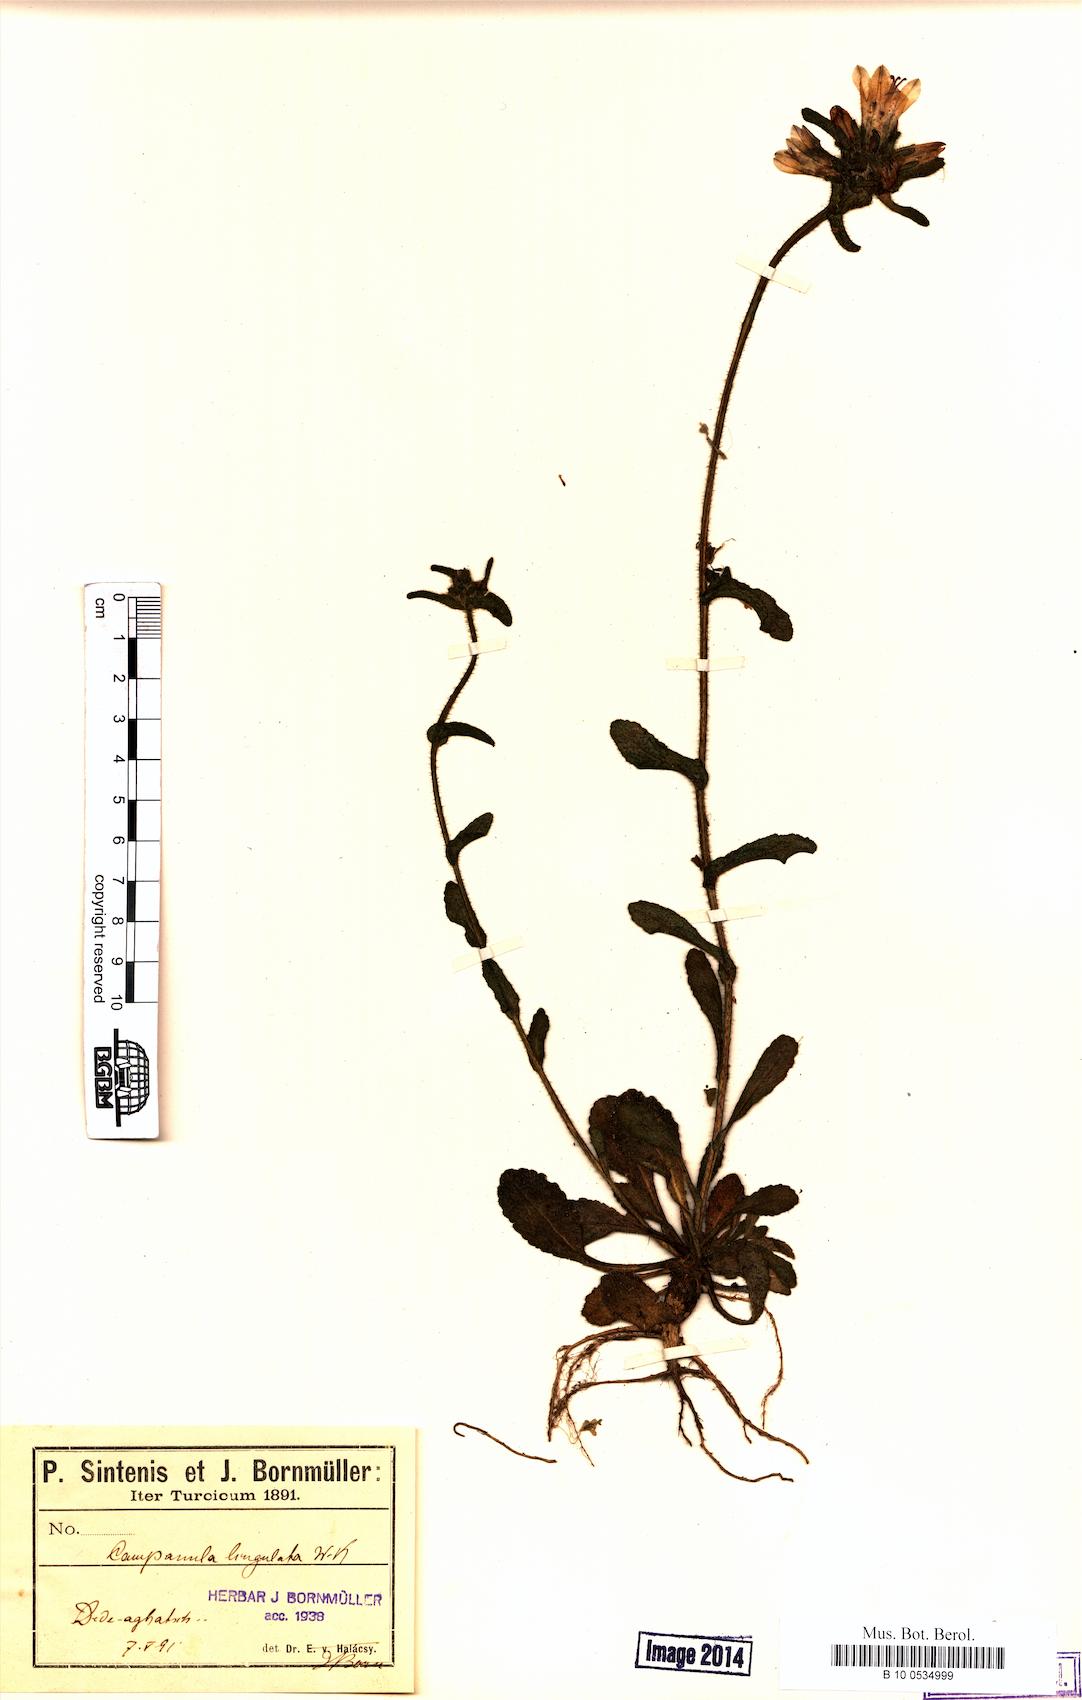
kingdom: Plantae
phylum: Tracheophyta
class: Magnoliopsida
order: Asterales
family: Campanulaceae
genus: Campanula
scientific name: Campanula lingulata
